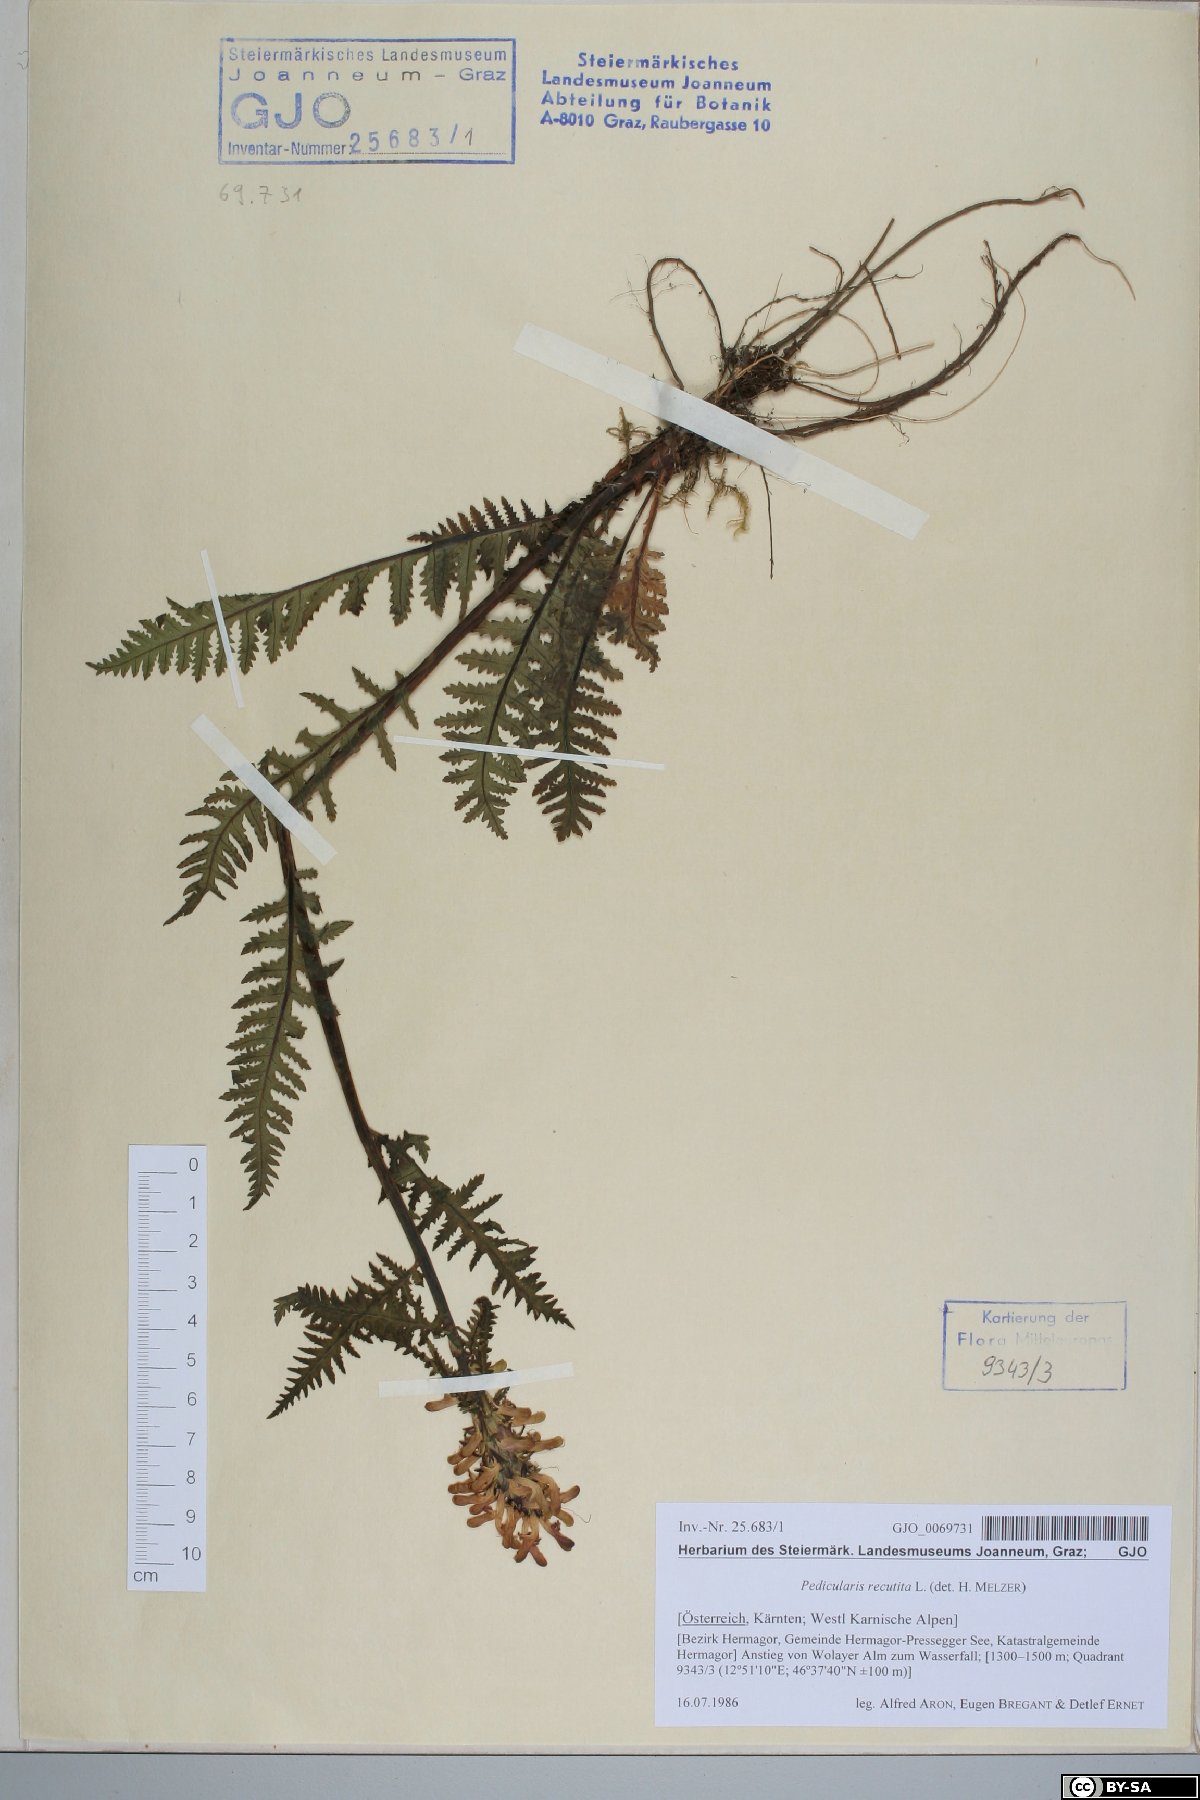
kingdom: Plantae
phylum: Tracheophyta
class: Magnoliopsida
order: Lamiales
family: Orobanchaceae
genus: Pedicularis
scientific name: Pedicularis recutita
